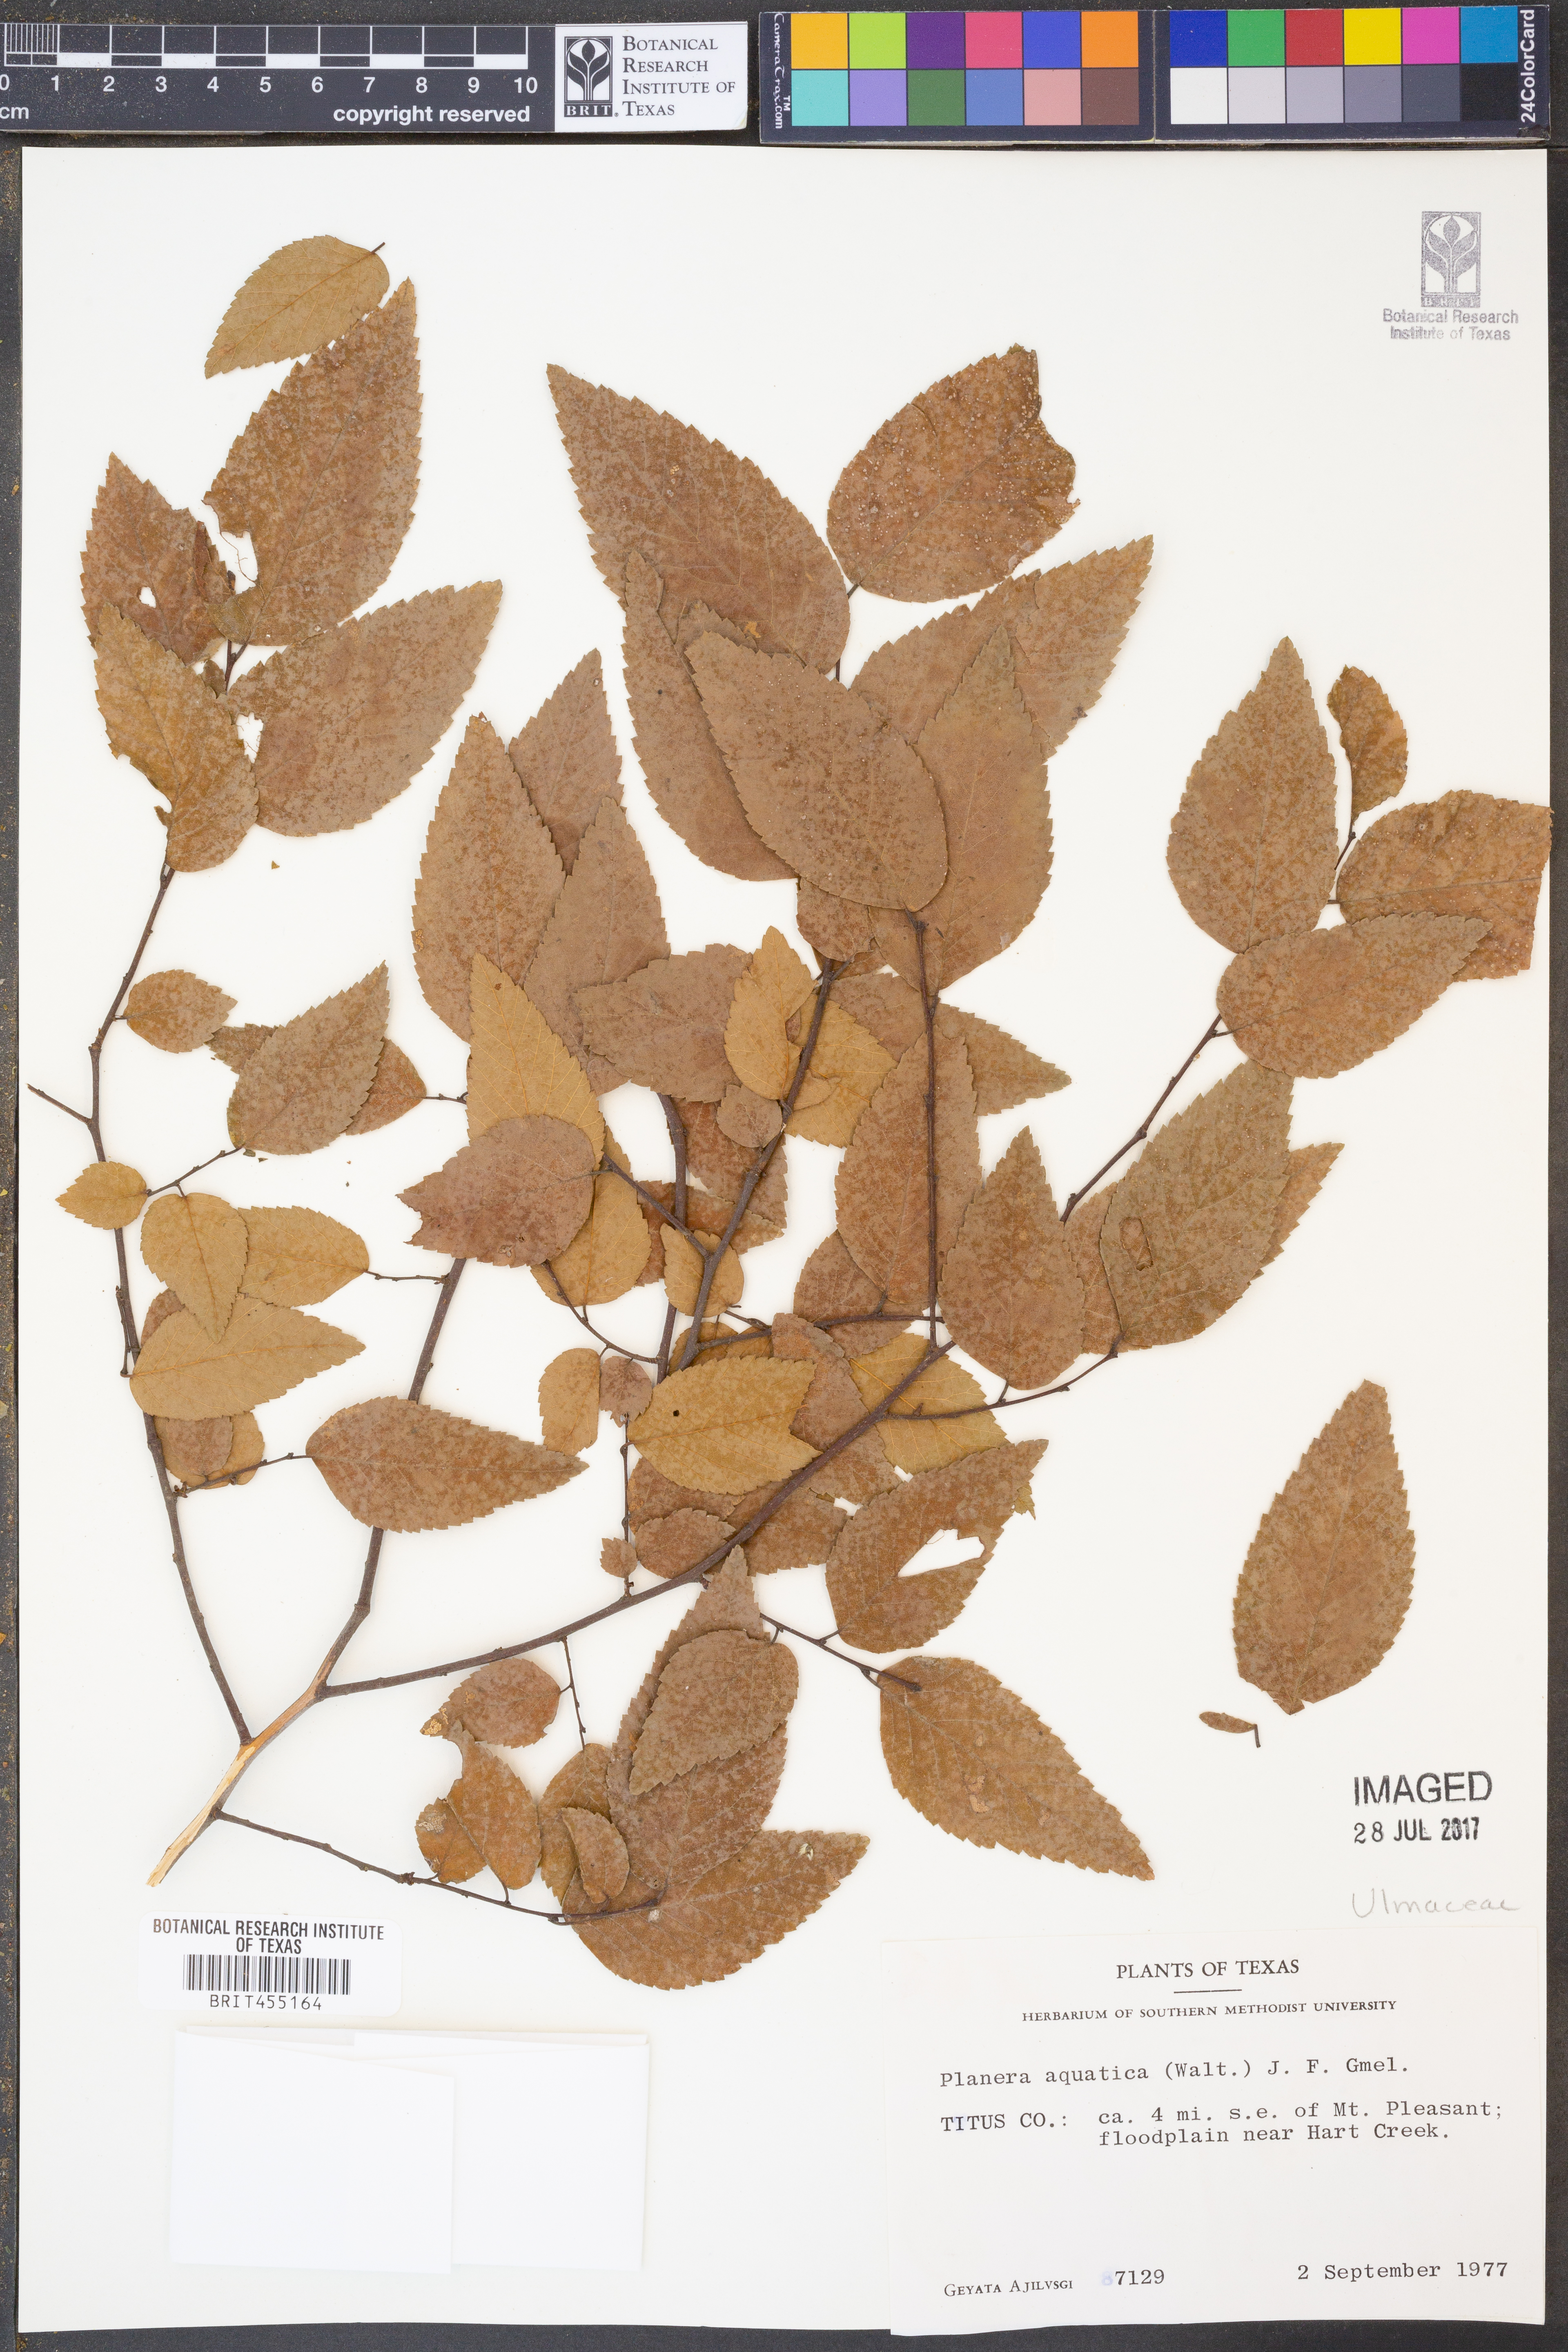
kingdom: Plantae
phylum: Tracheophyta
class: Magnoliopsida
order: Rosales
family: Ulmaceae
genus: Planera
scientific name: Planera aquatica
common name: Water-elm
